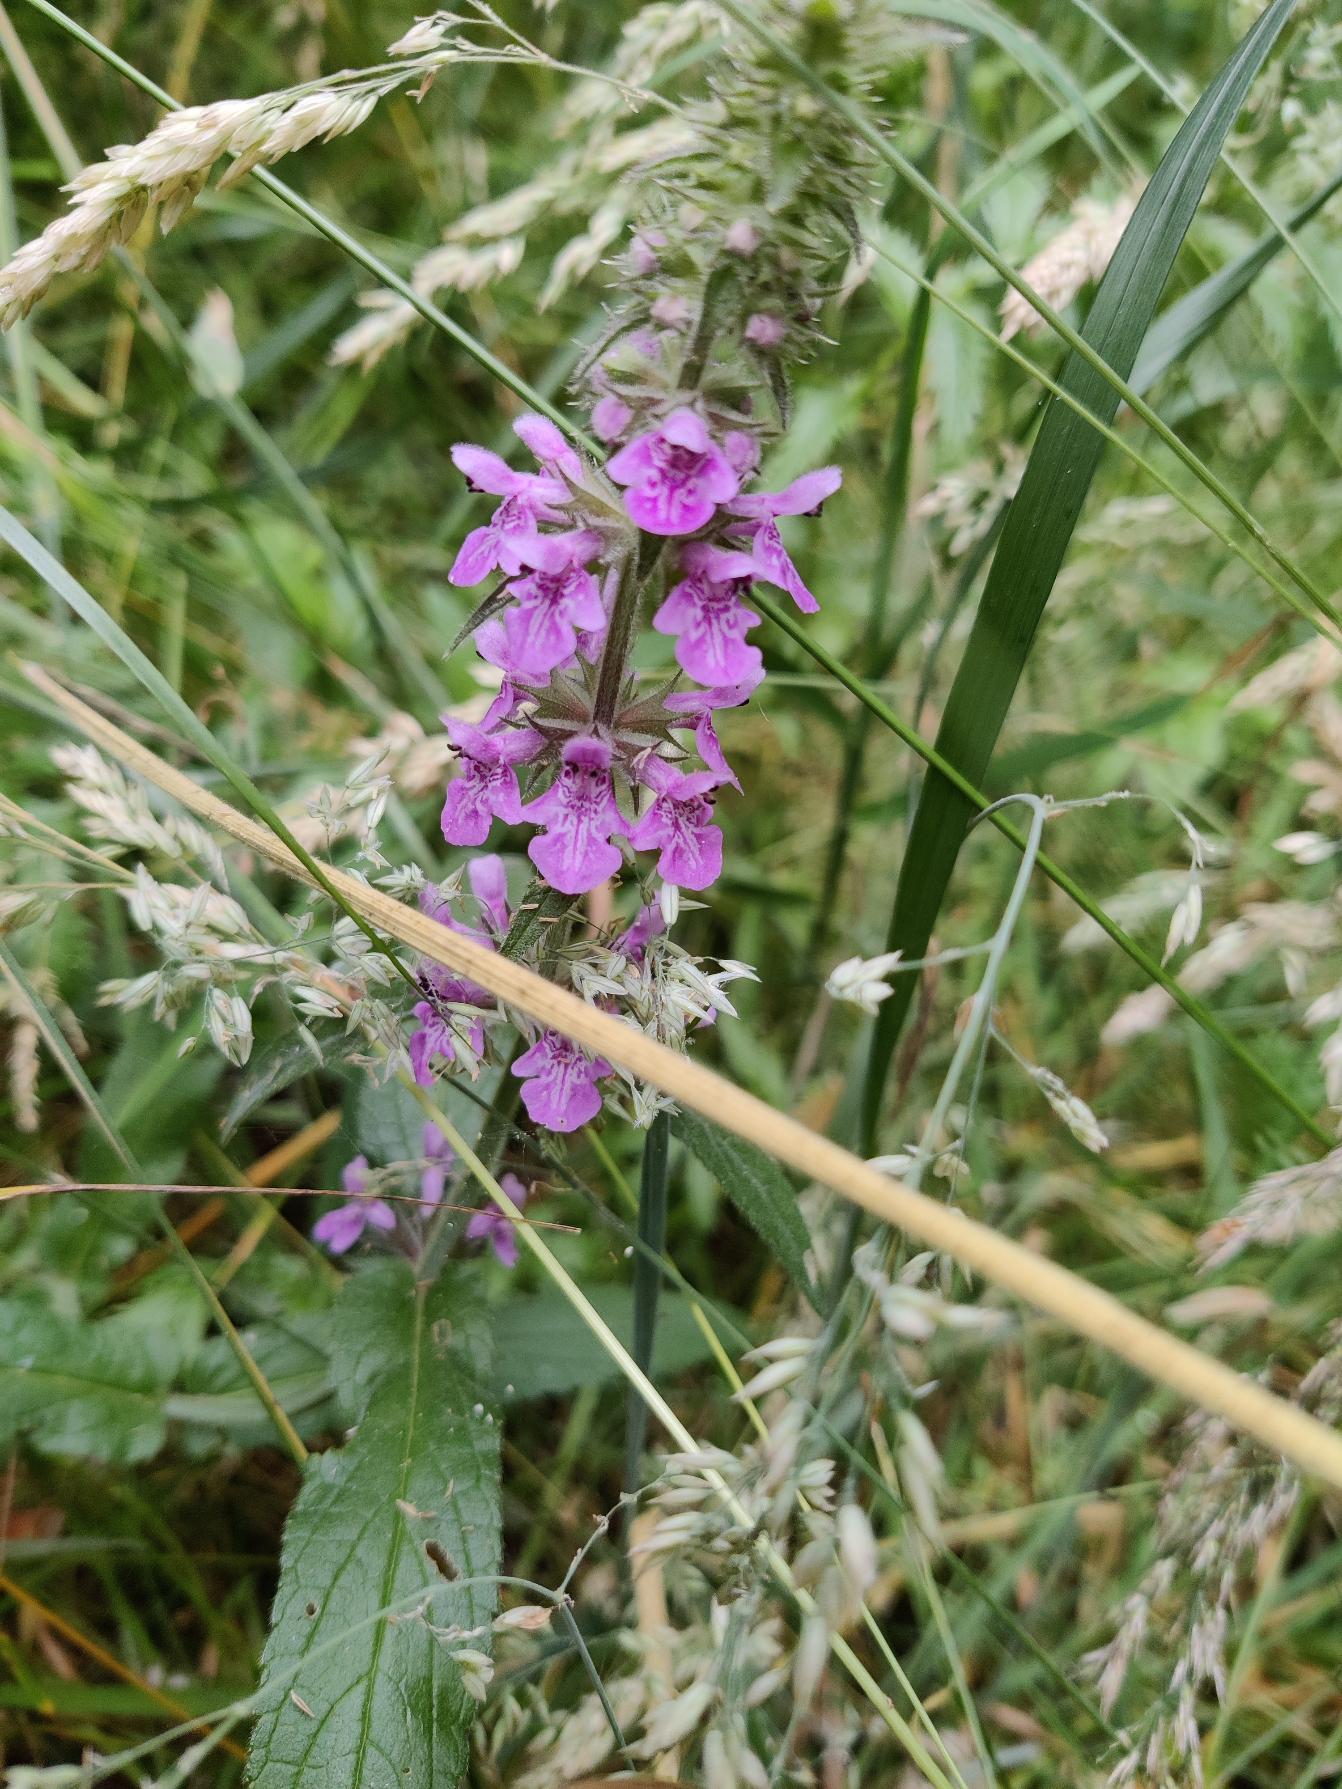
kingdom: Plantae
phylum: Tracheophyta
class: Magnoliopsida
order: Lamiales
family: Lamiaceae
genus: Stachys
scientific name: Stachys palustris
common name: Kær-galtetand
